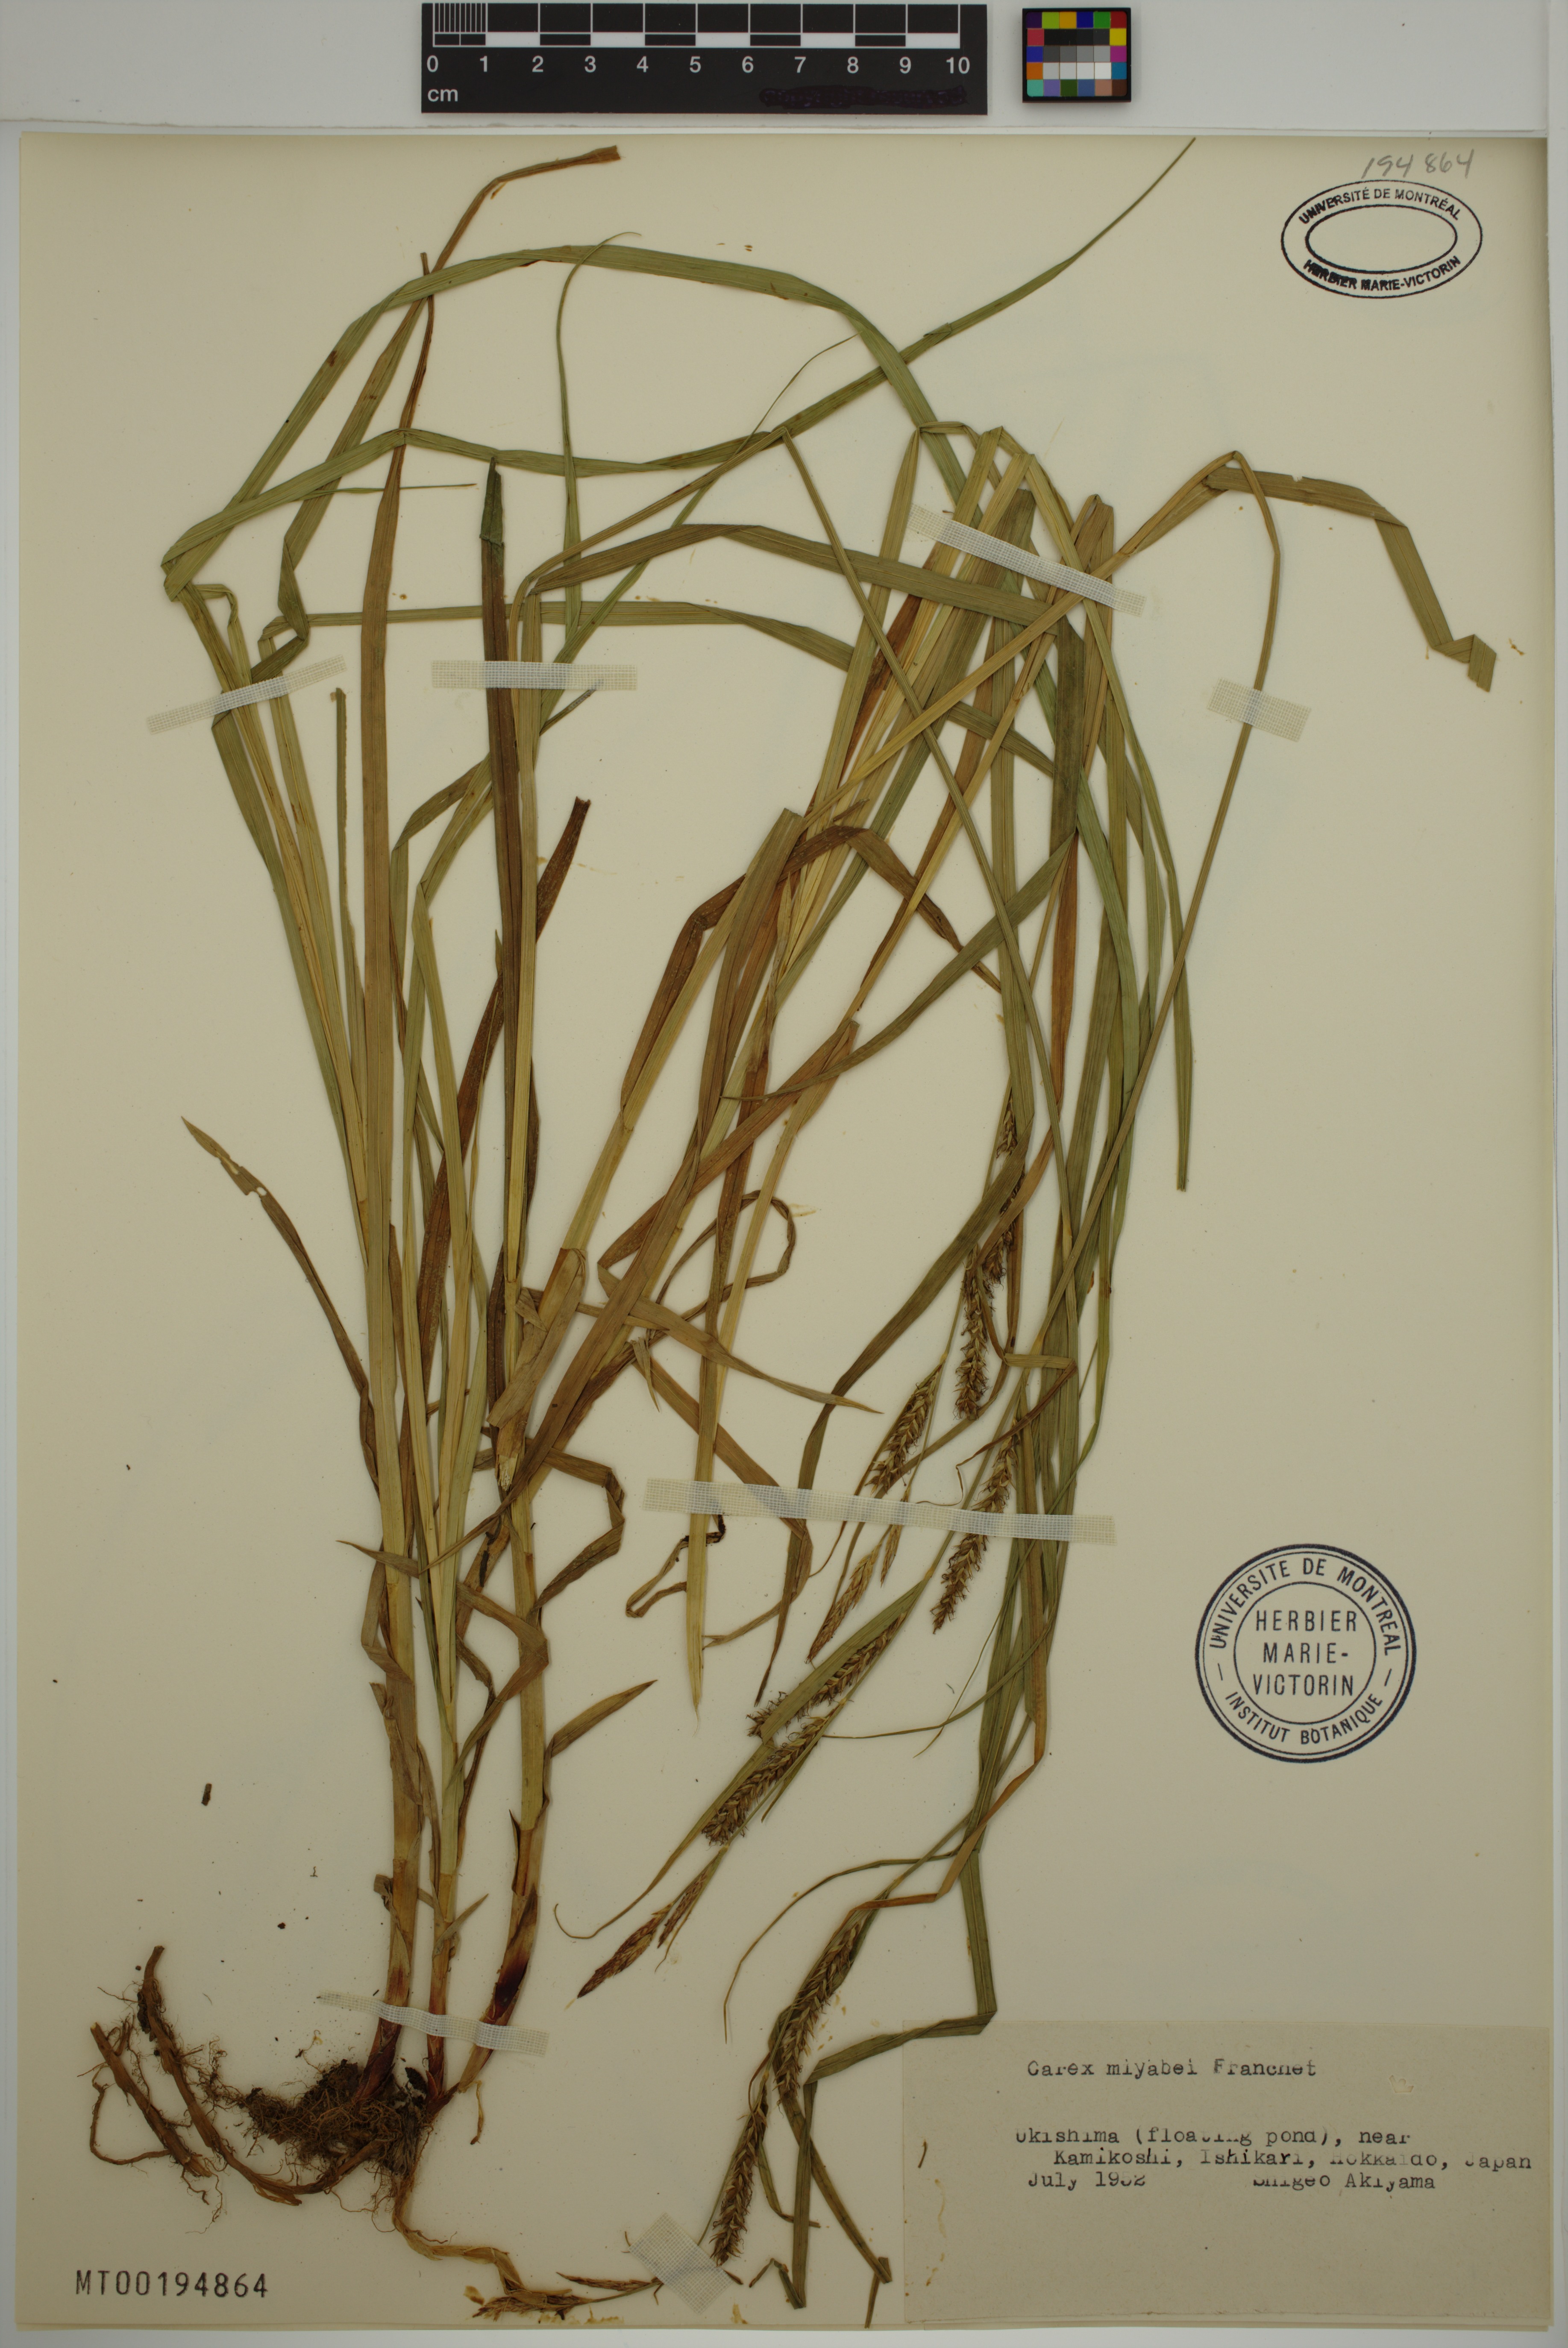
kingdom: Plantae
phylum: Tracheophyta
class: Liliopsida
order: Poales
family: Cyperaceae
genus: Carex
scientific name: Carex miyabei
